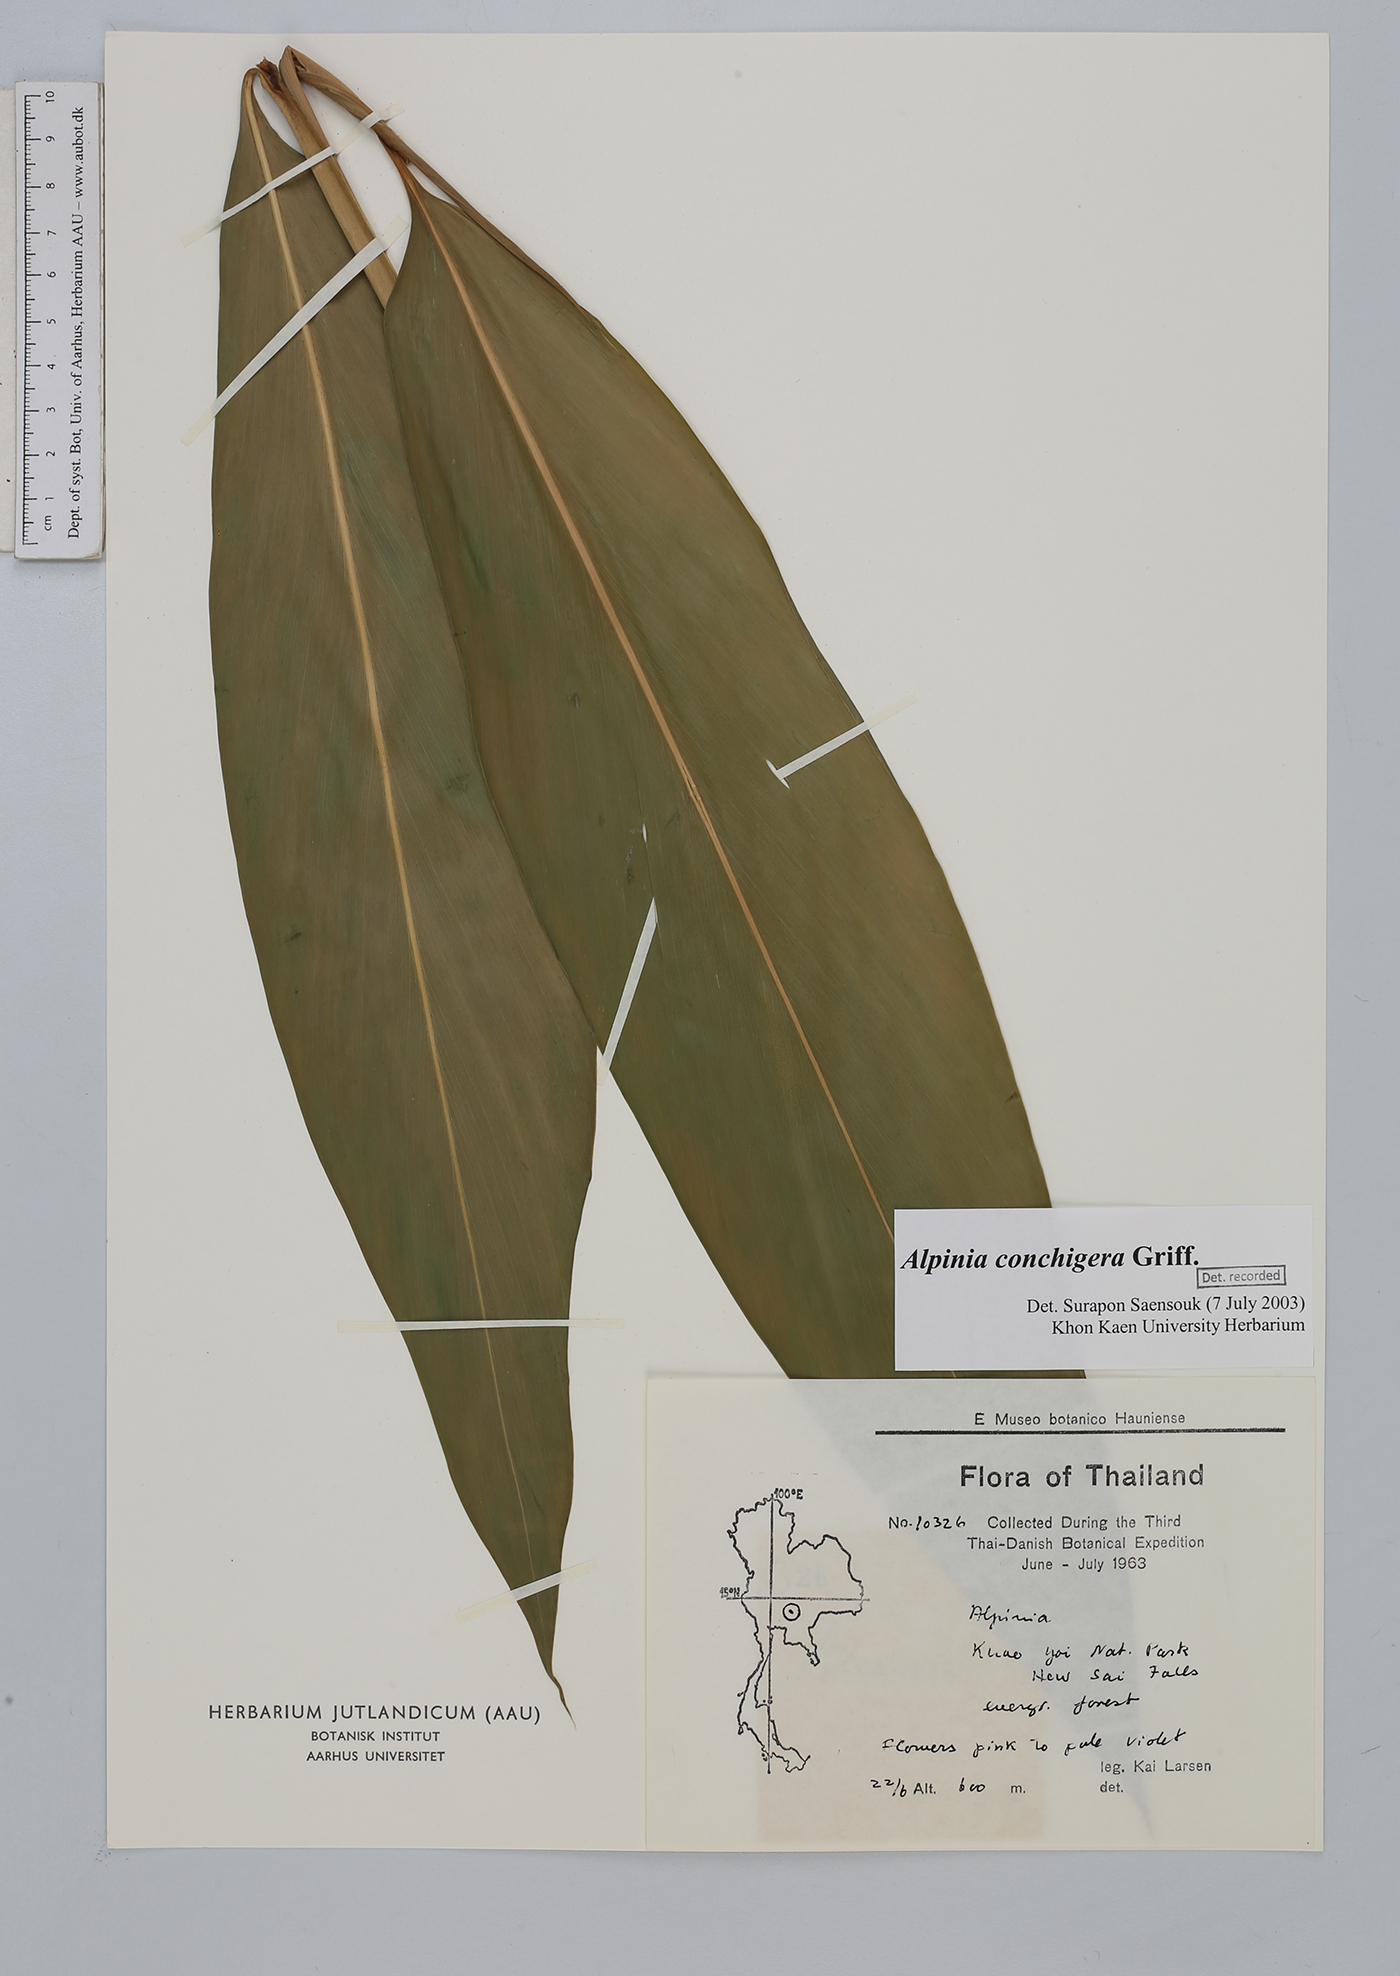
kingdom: Plantae
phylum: Tracheophyta
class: Liliopsida
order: Zingiberales
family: Zingiberaceae
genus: Alpinia
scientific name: Alpinia conchigera
